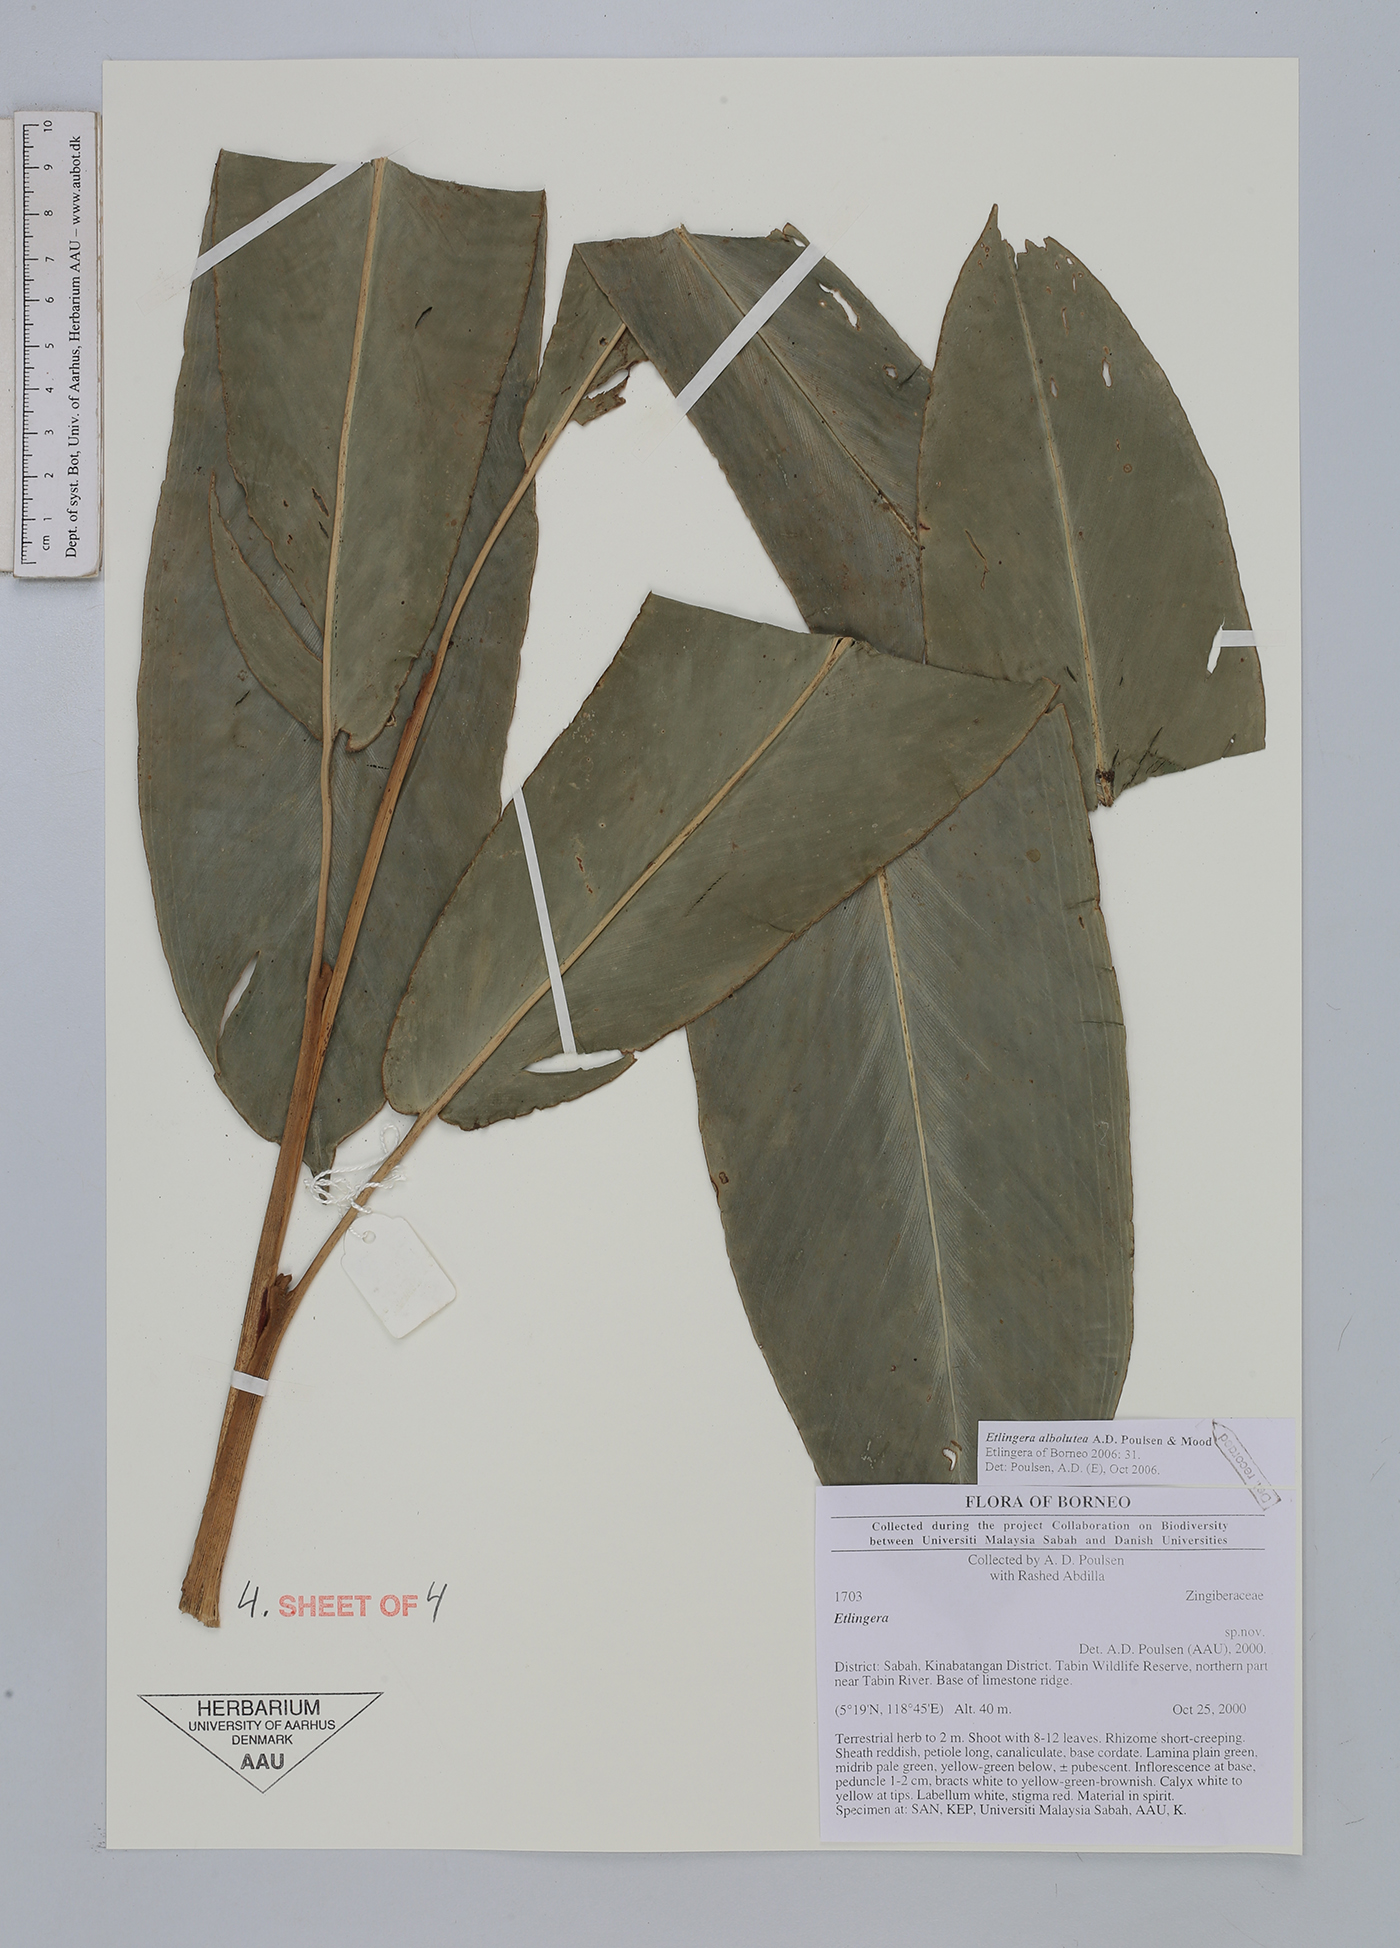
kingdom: Plantae
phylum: Tracheophyta
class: Liliopsida
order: Zingiberales
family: Zingiberaceae
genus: Etlingera
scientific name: Etlingera albolutea
